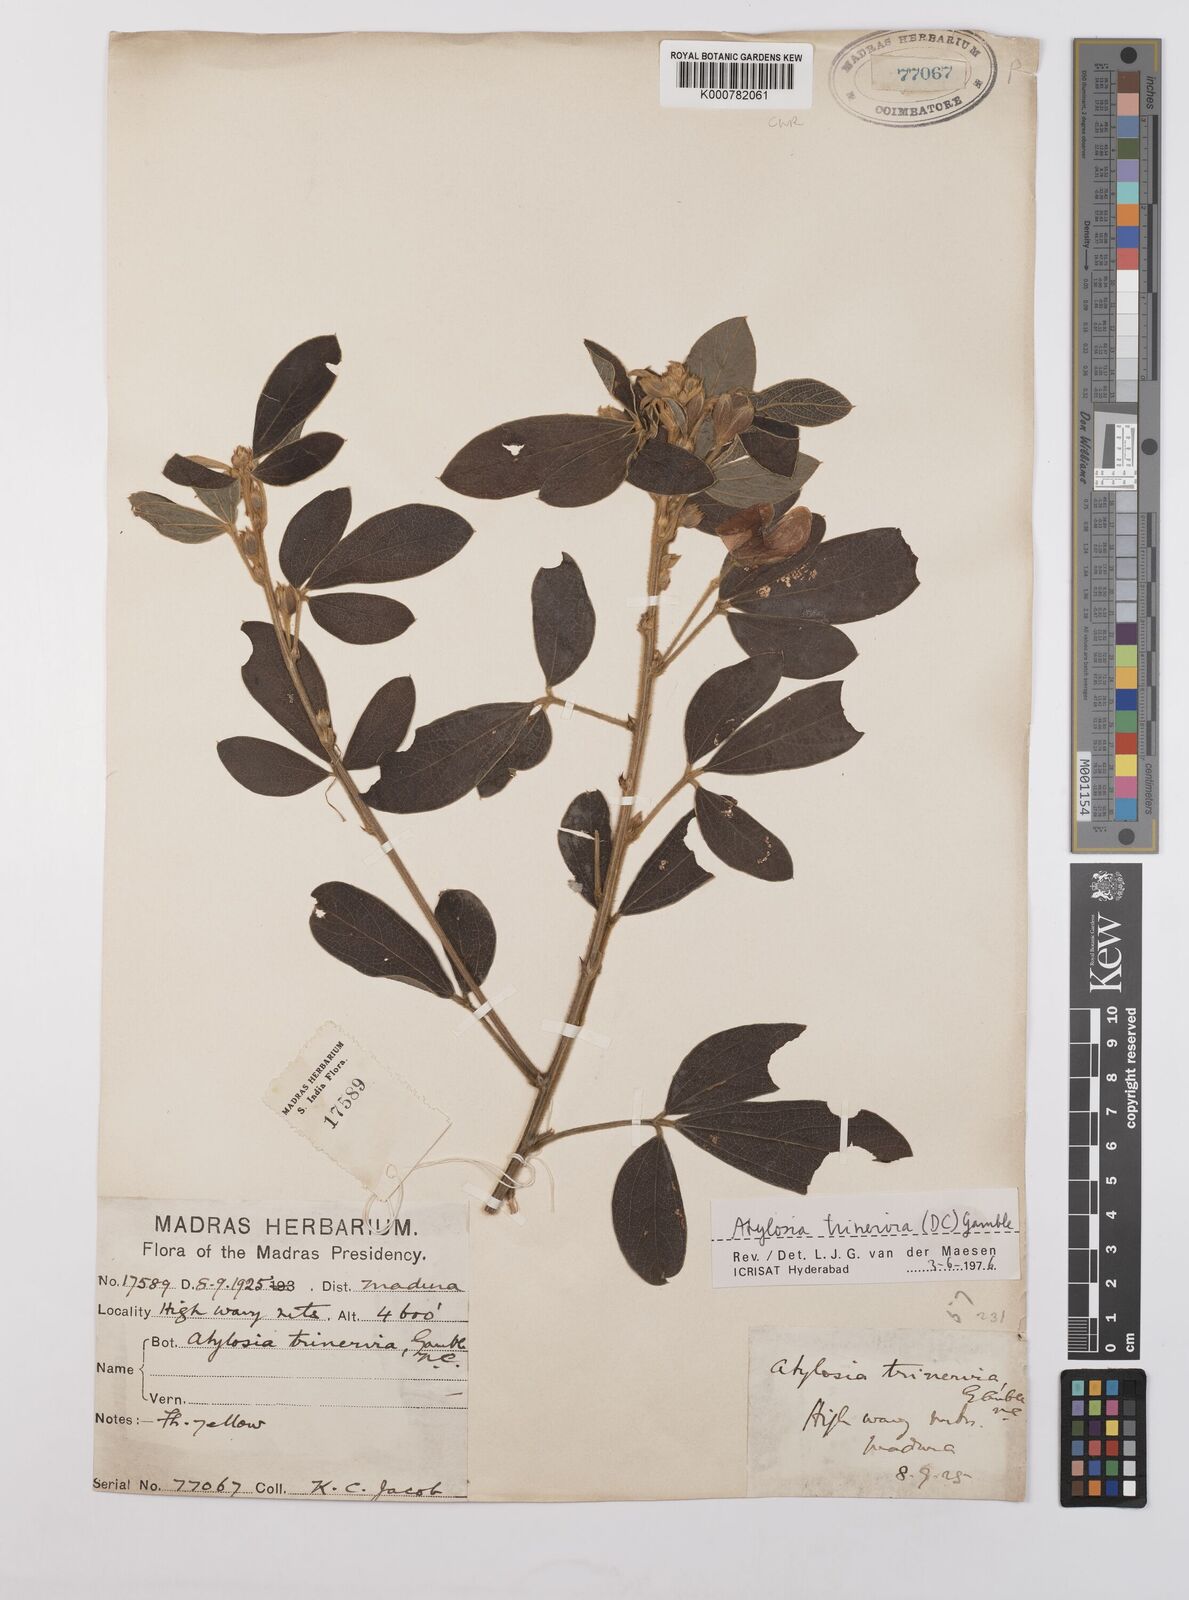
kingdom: Plantae
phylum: Tracheophyta
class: Magnoliopsida
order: Fabales
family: Fabaceae
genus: Cajanus
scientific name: Cajanus trinervius
